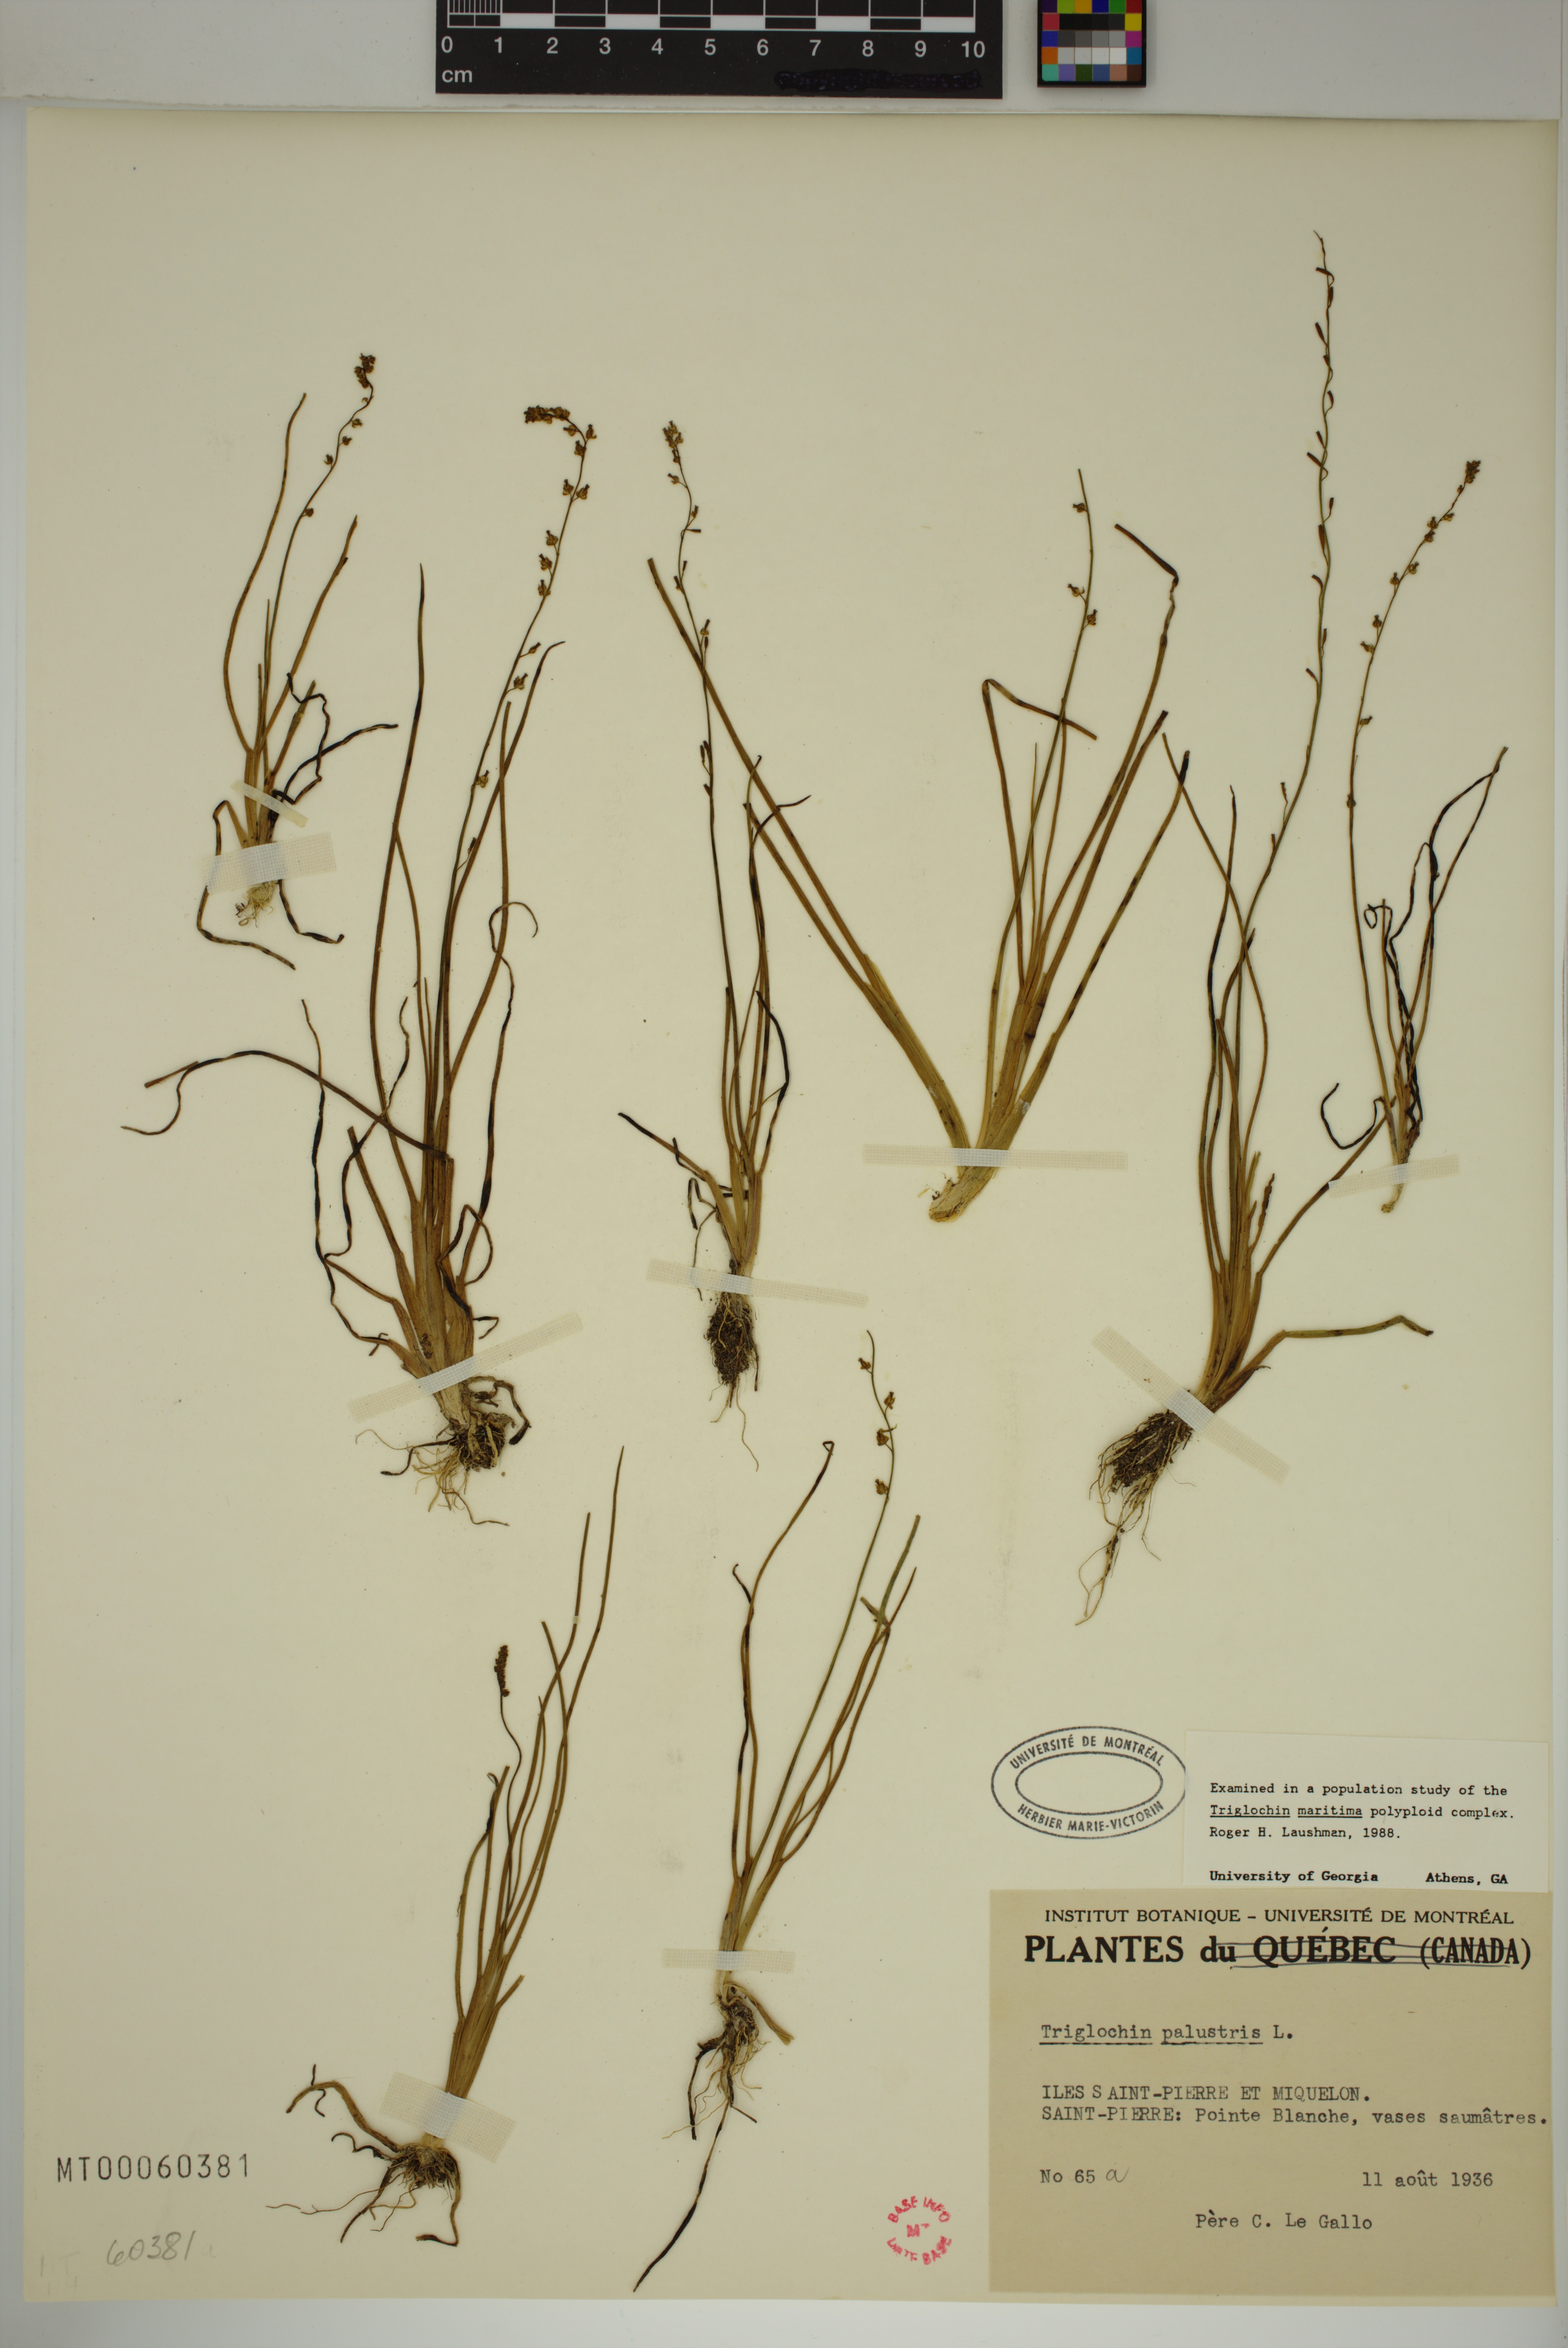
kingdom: Plantae
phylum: Tracheophyta
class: Liliopsida
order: Alismatales
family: Juncaginaceae
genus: Triglochin
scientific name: Triglochin palustris
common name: Marsh arrowgrass
